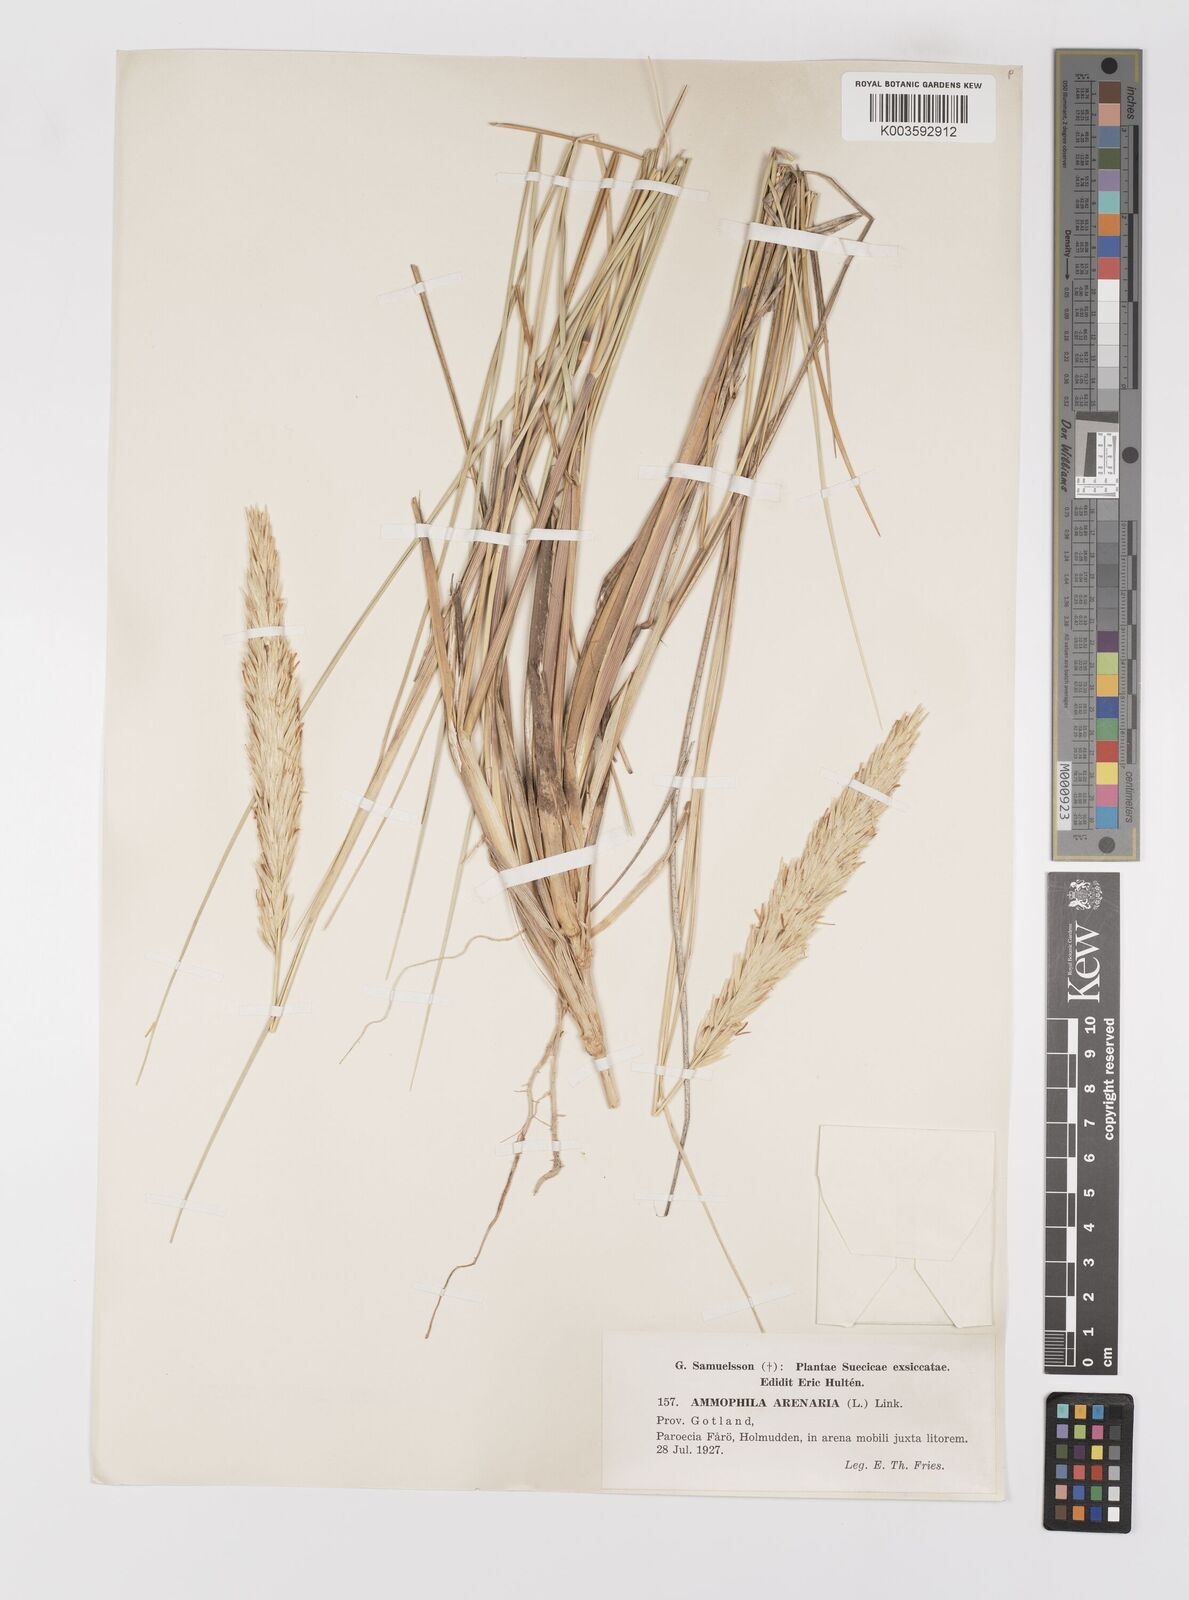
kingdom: Plantae
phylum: Tracheophyta
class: Liliopsida
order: Poales
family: Poaceae
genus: Calamagrostis
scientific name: Calamagrostis arenaria
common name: European beachgrass
